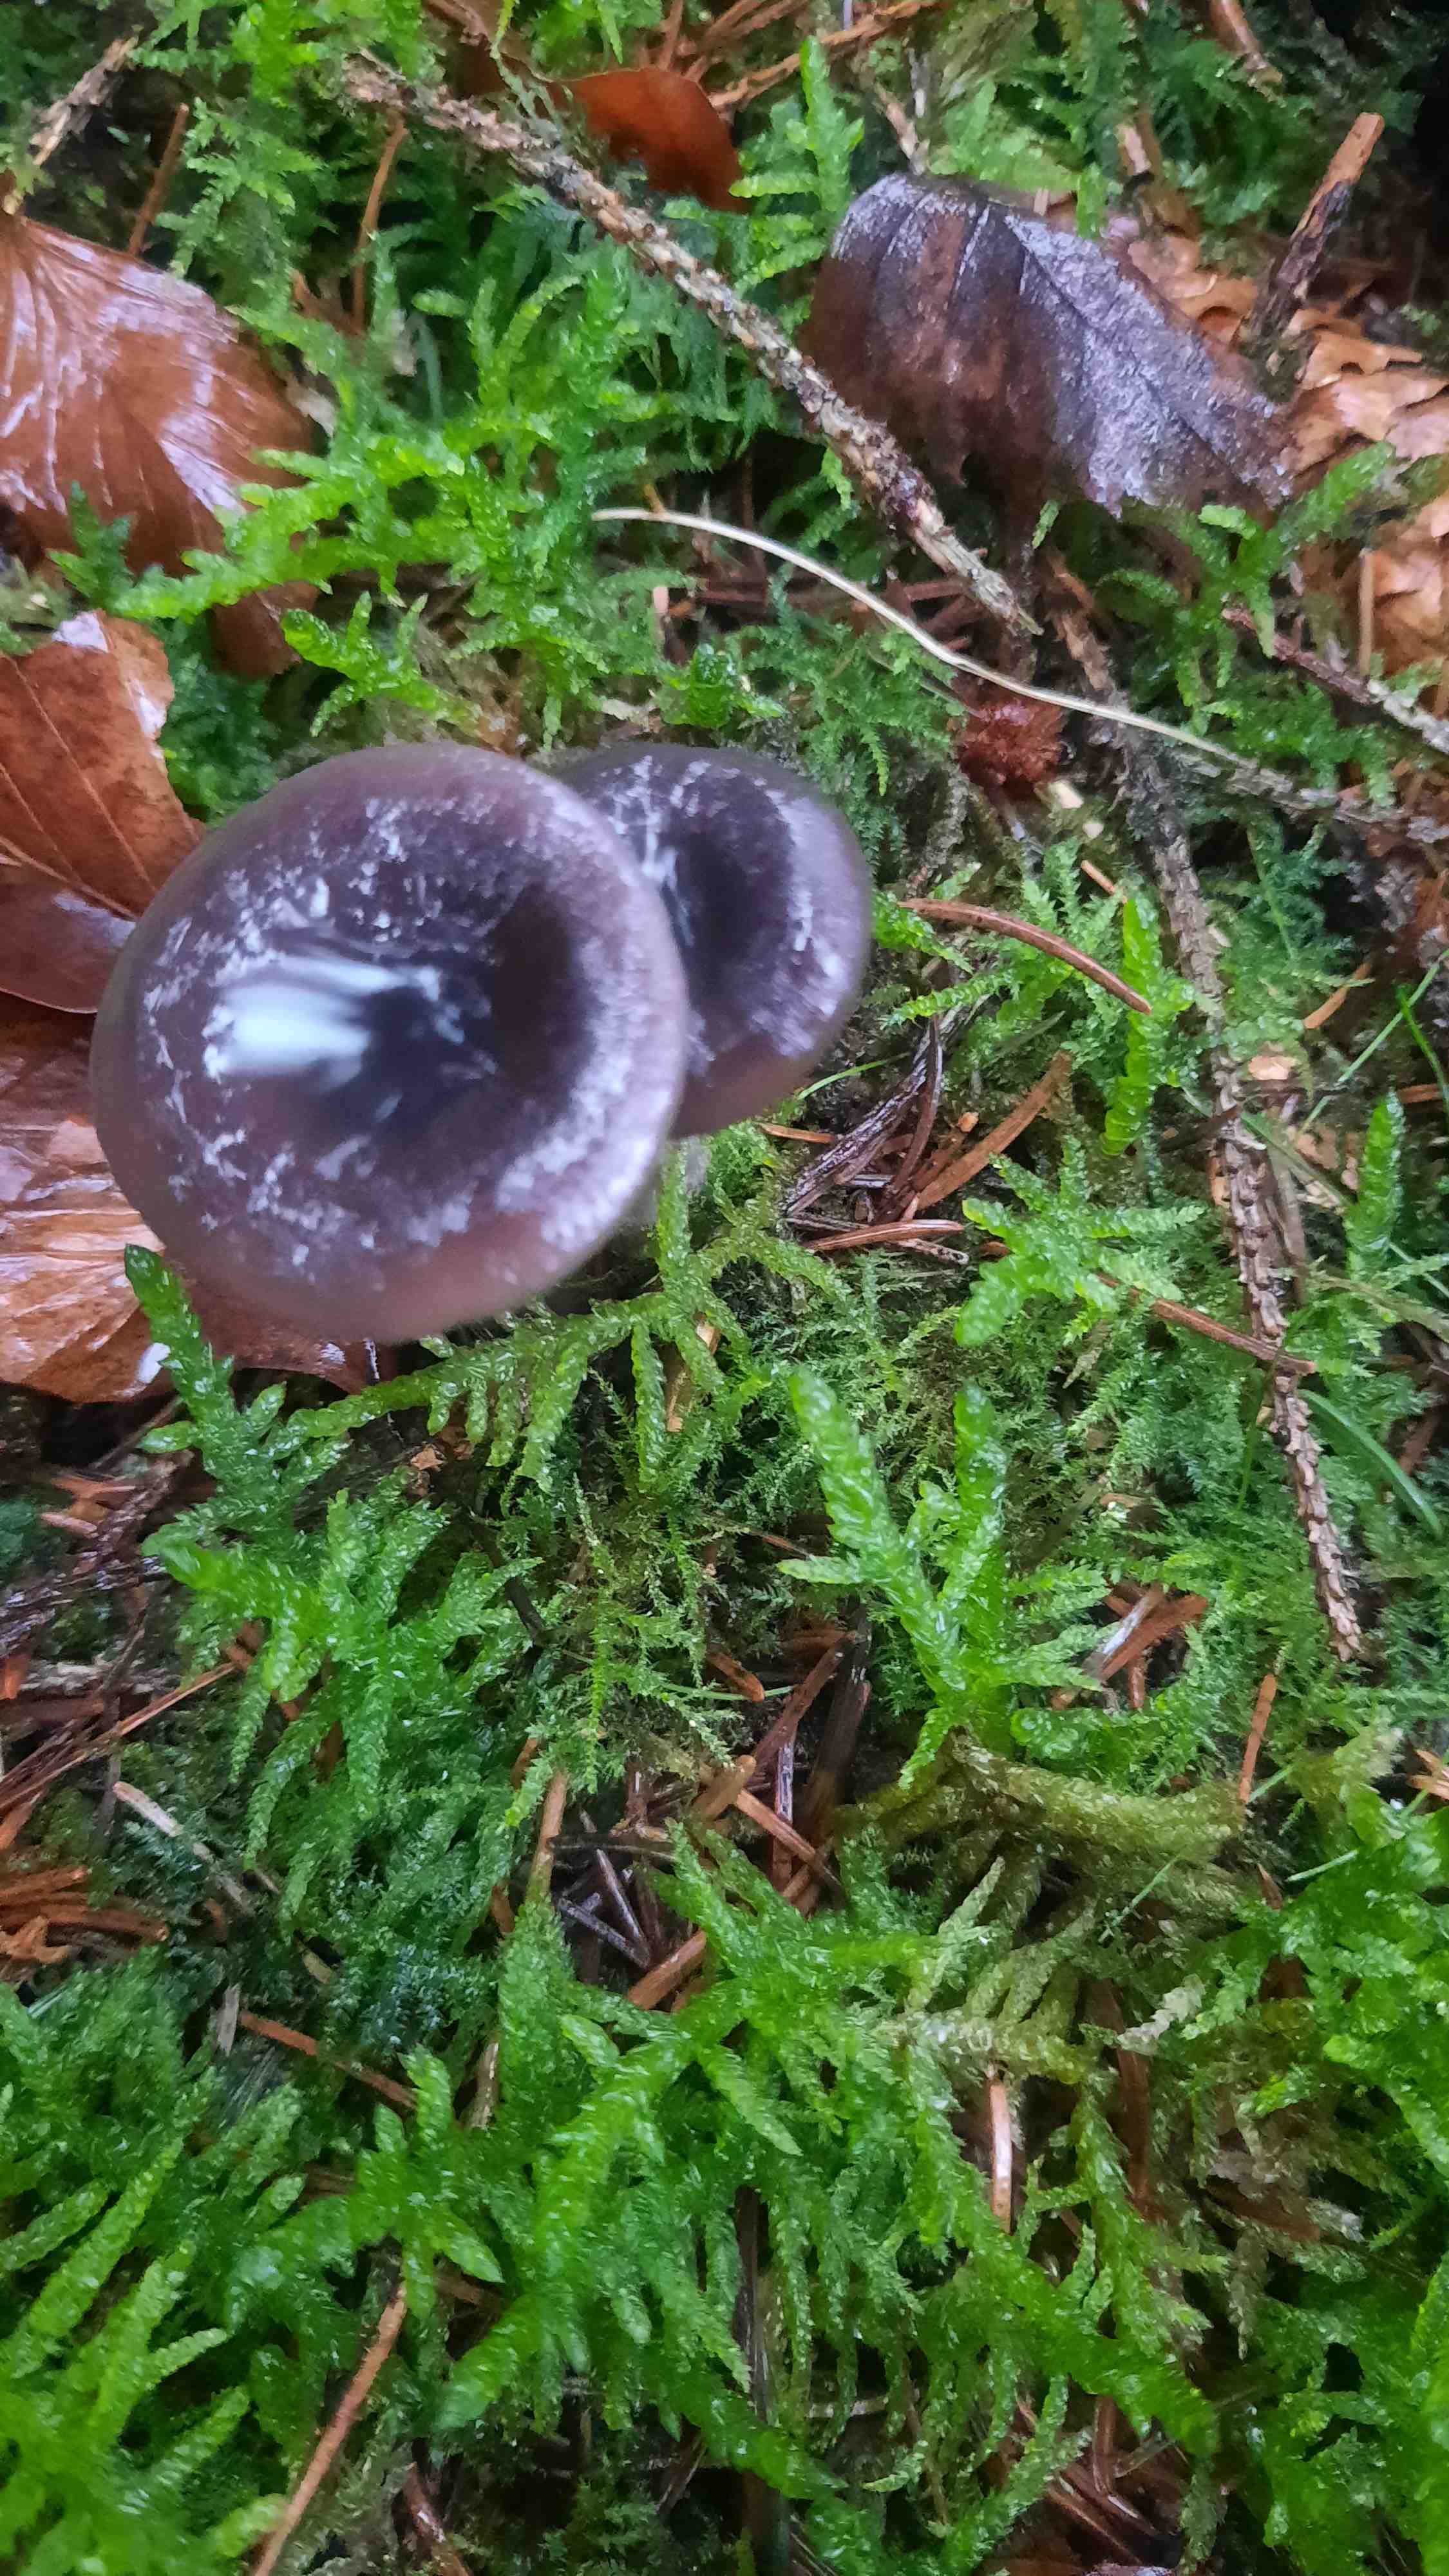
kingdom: Fungi
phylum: Basidiomycota
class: Agaricomycetes
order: Agaricales
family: Pseudoclitocybaceae
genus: Pseudoclitocybe
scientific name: Pseudoclitocybe cyathiformis
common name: almindelig bægertragthat
